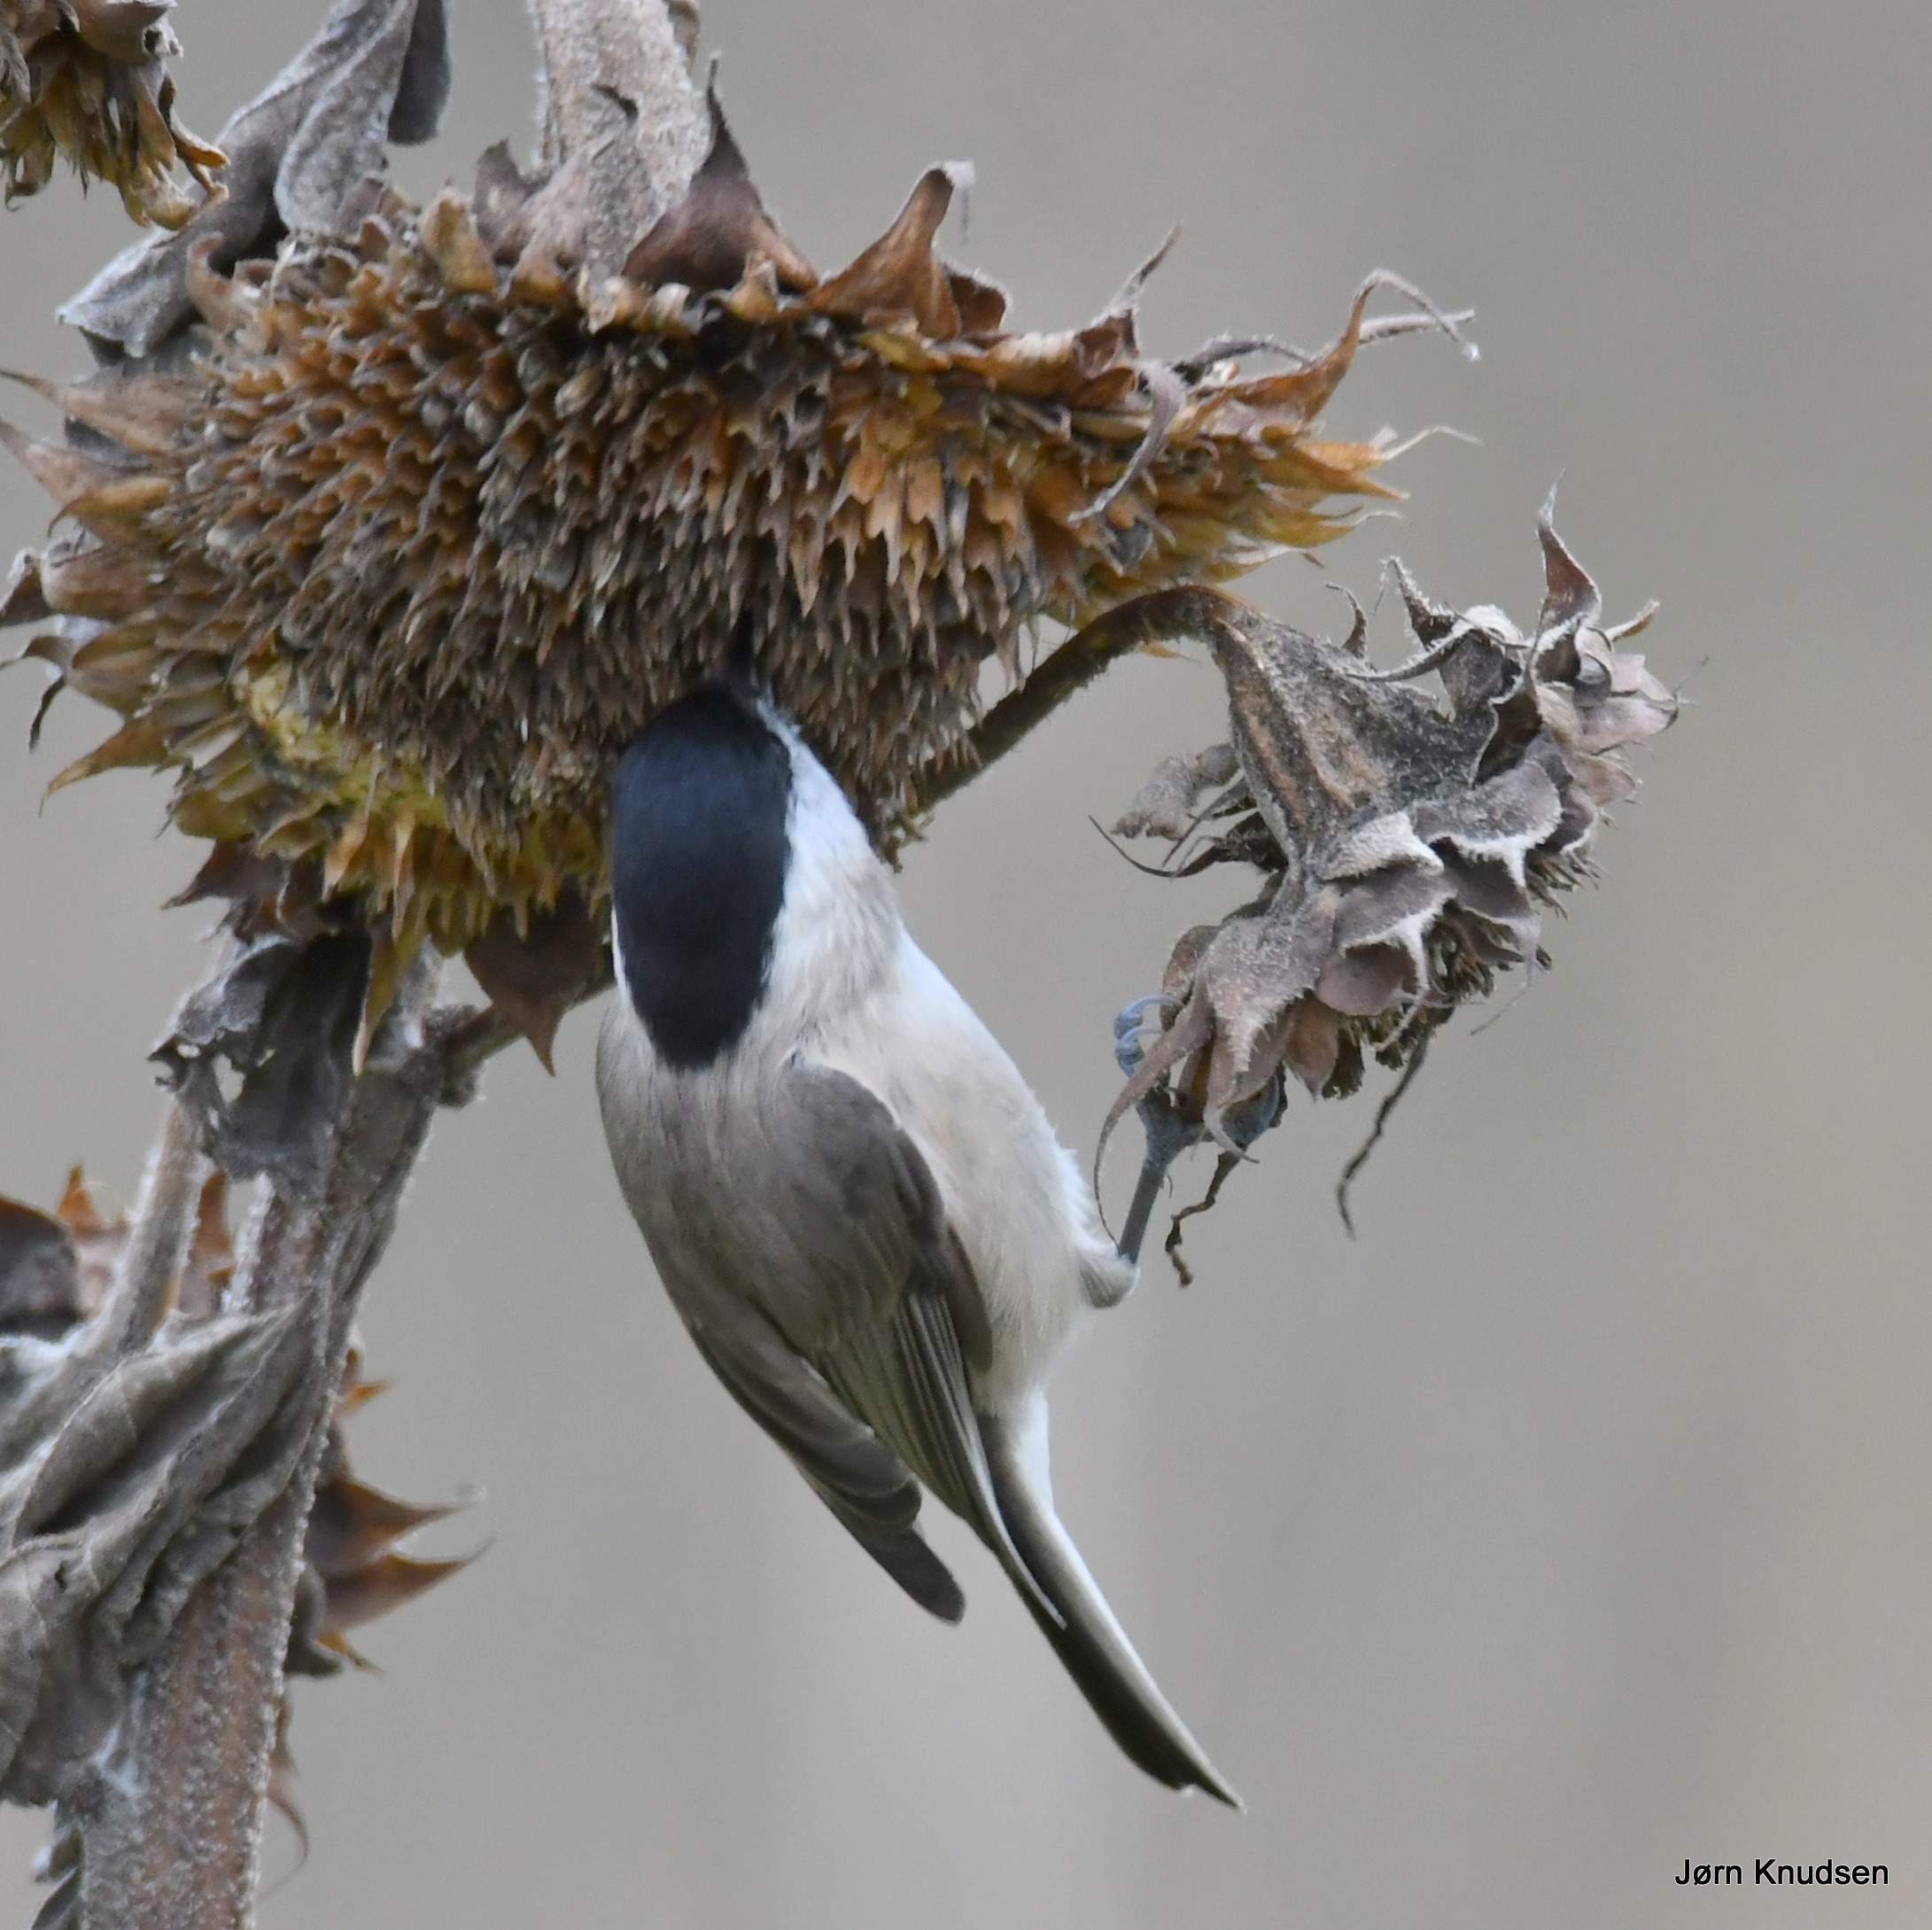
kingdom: Animalia
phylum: Chordata
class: Aves
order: Passeriformes
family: Paridae
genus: Poecile
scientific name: Poecile palustris
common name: Sumpmejse
